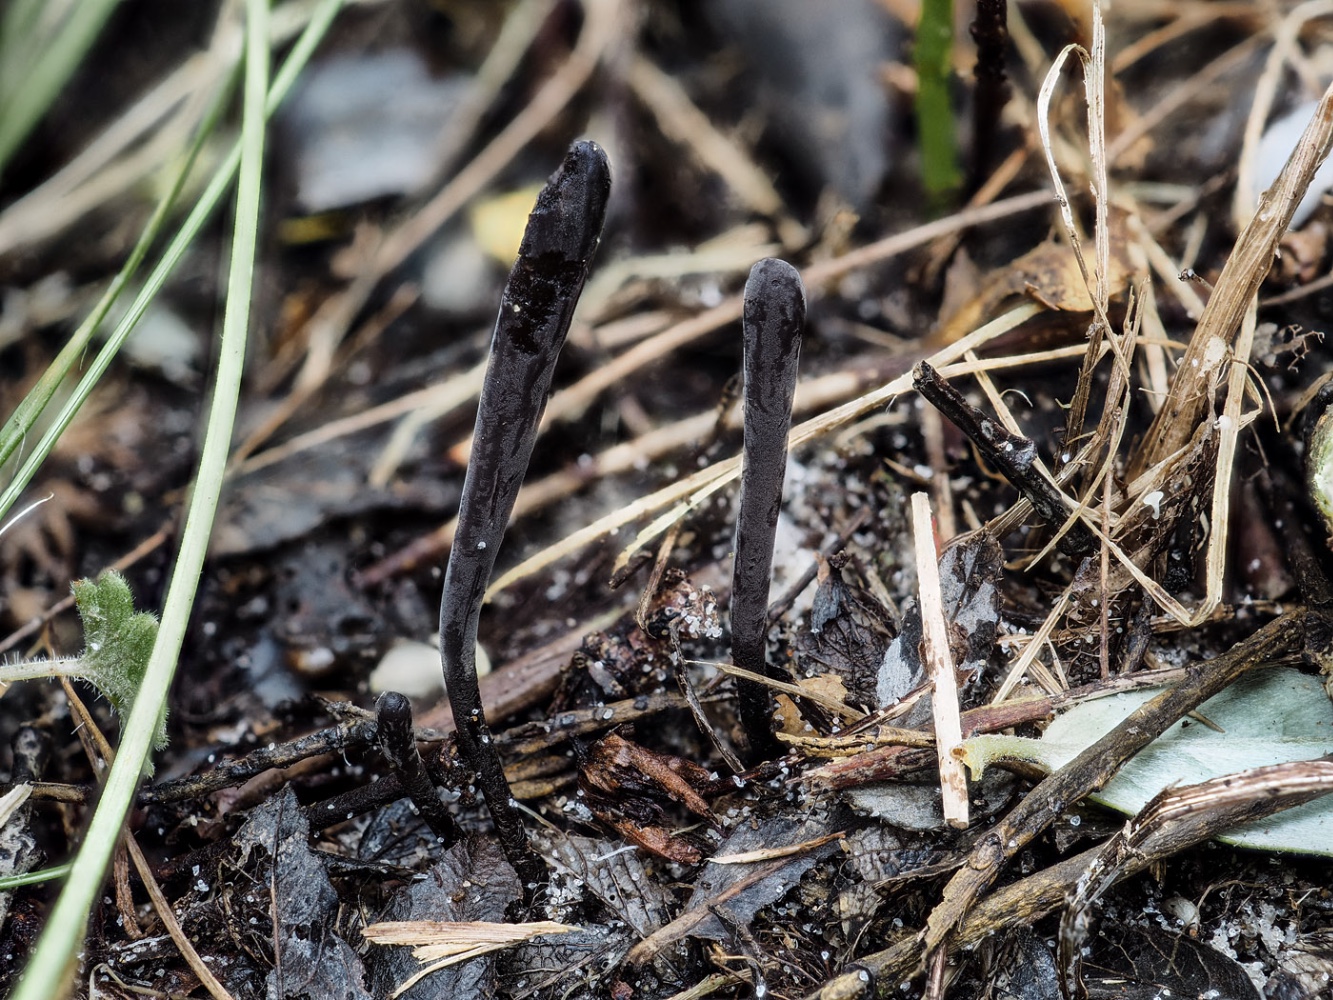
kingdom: Fungi
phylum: Basidiomycota
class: Agaricomycetes
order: Agaricales
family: Clavariaceae
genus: Ramariopsis
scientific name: Ramariopsis asperulospora
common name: sort køllesvamp
